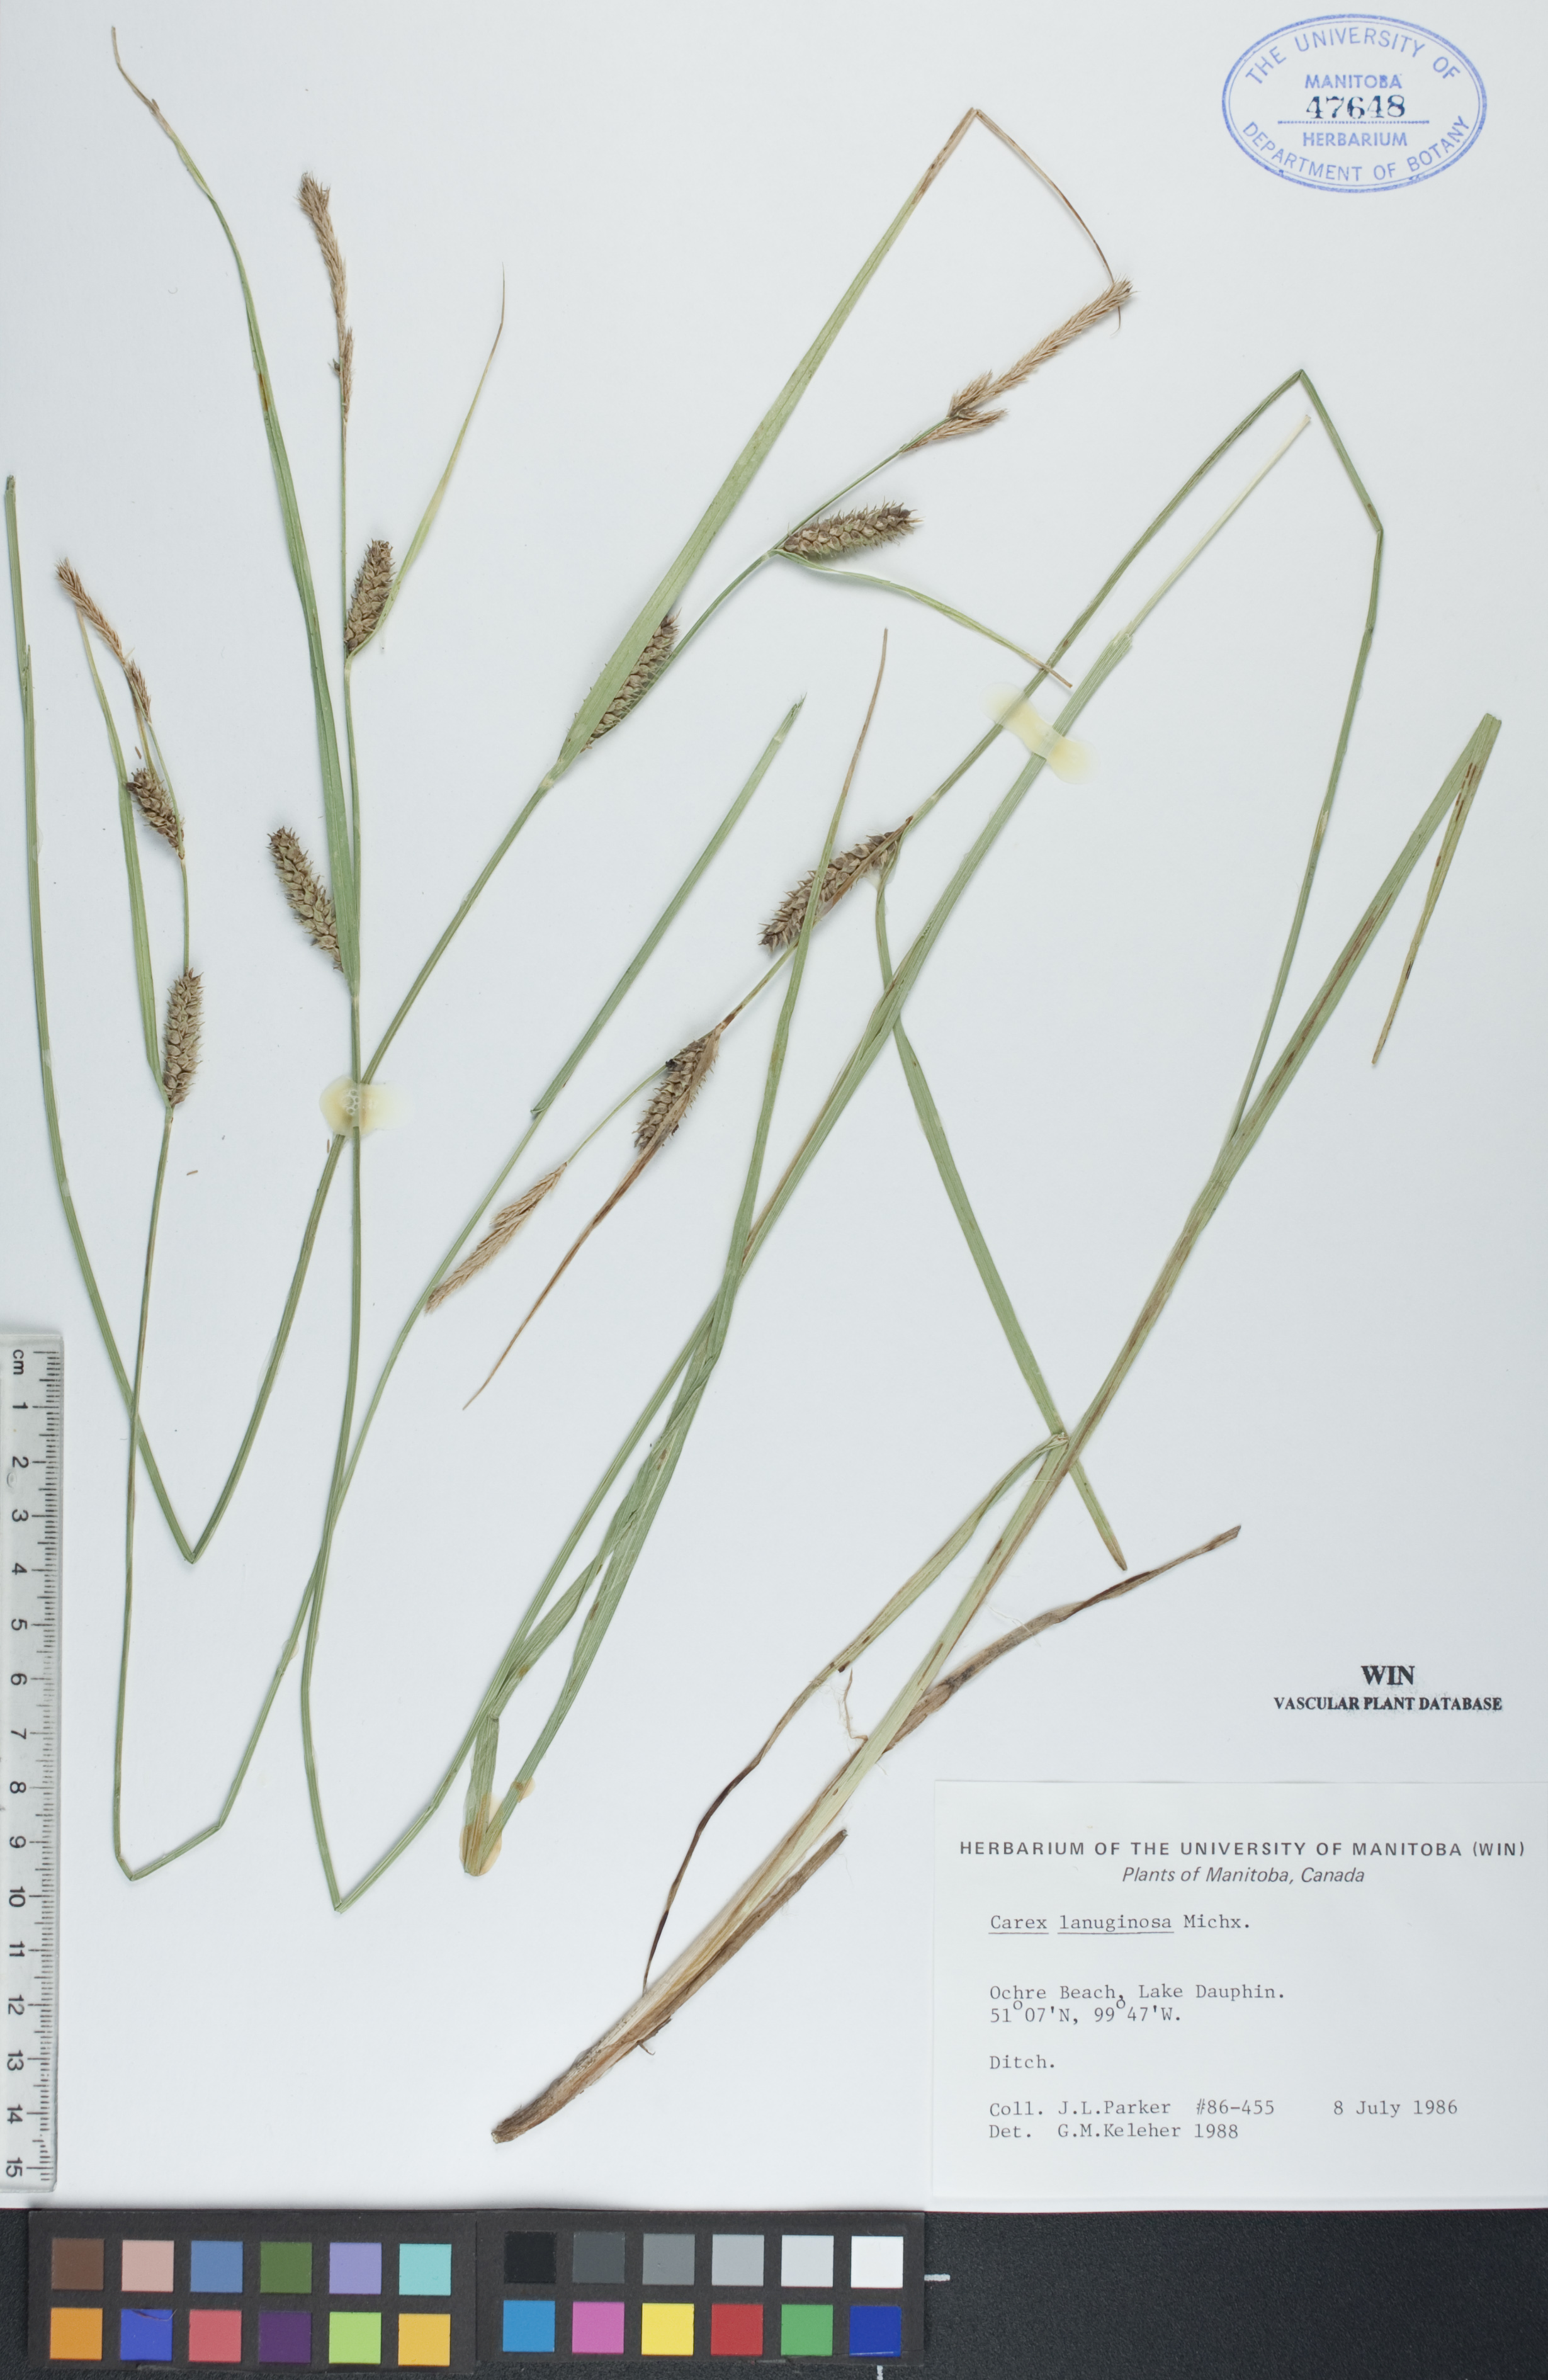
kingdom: Plantae
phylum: Tracheophyta
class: Liliopsida
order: Poales
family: Cyperaceae
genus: Carex
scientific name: Carex lasiocarpa
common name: Slender sedge
